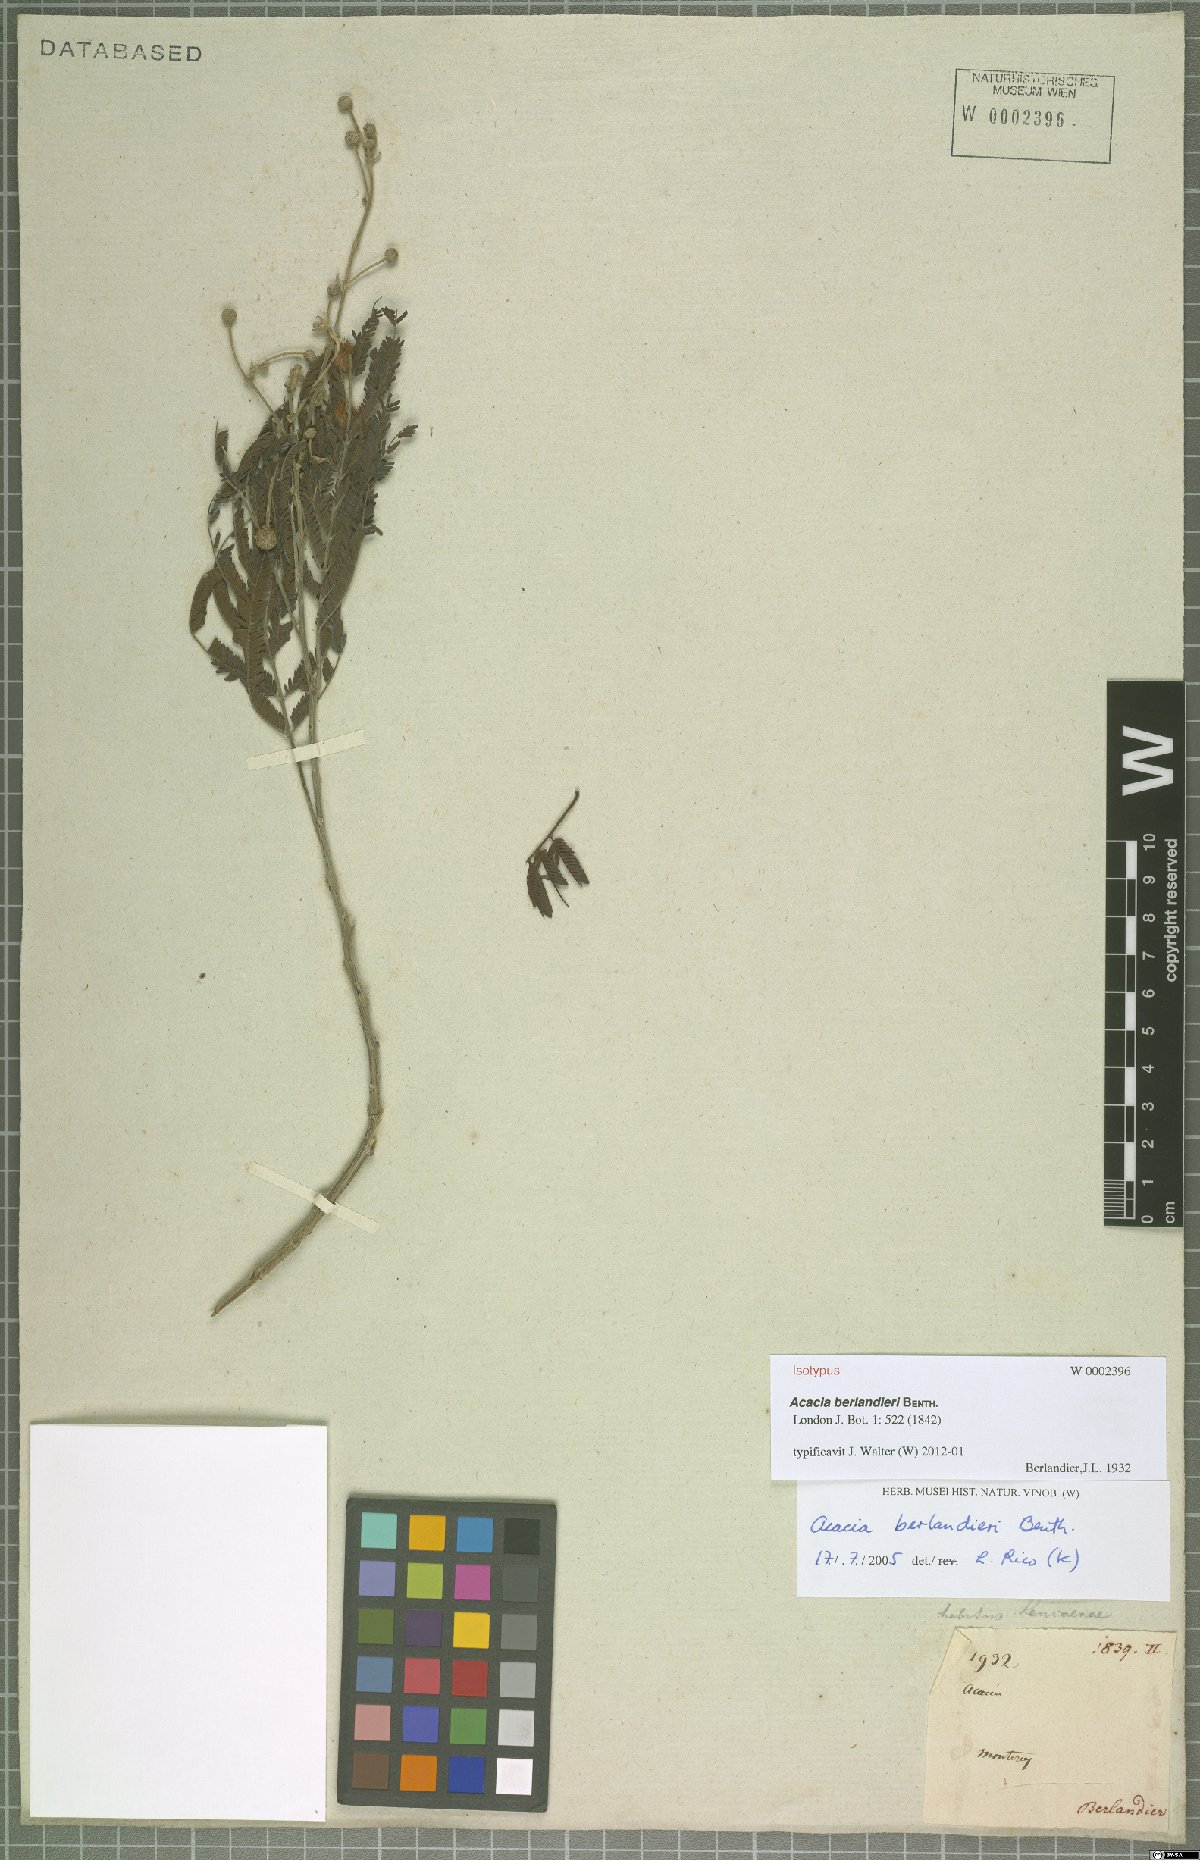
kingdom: Plantae
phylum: Tracheophyta
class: Magnoliopsida
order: Fabales
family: Fabaceae
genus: Senegalia
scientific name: Senegalia berlandieri
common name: Berlandier acacia
